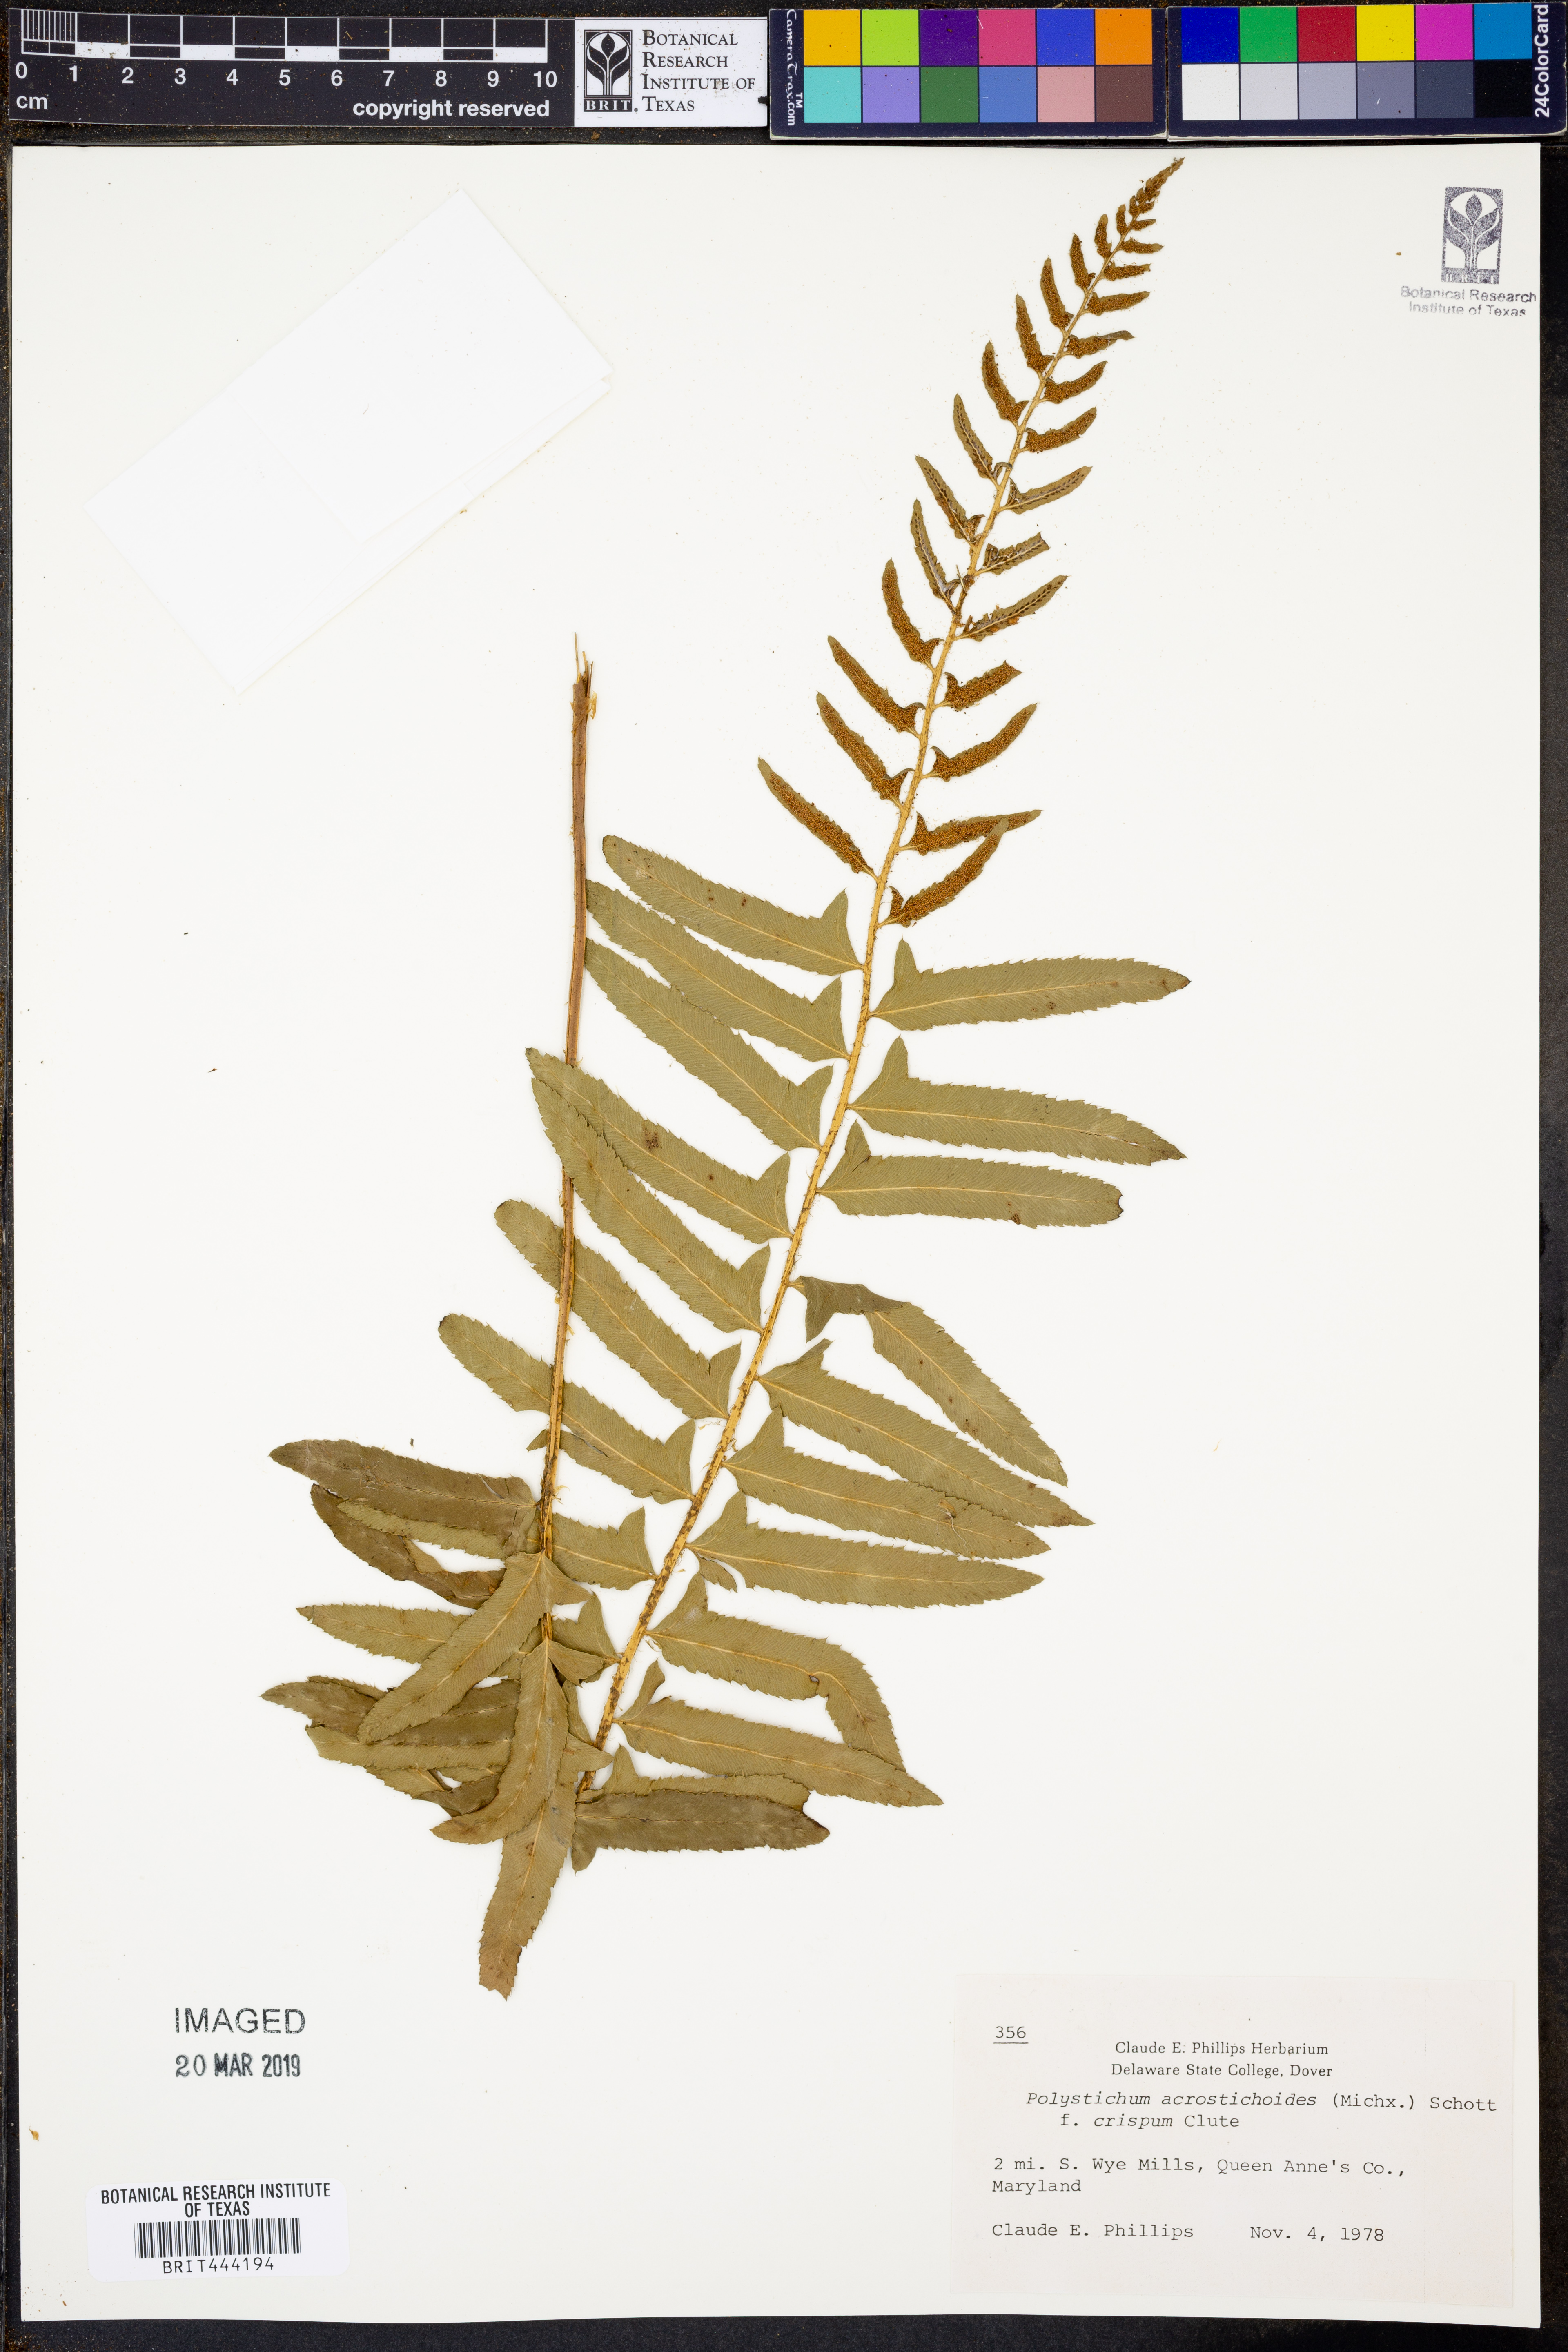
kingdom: Plantae
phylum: Tracheophyta
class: Polypodiopsida
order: Polypodiales
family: Dryopteridaceae
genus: Polystichum
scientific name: Polystichum acrostichoides
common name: Christmas fern
